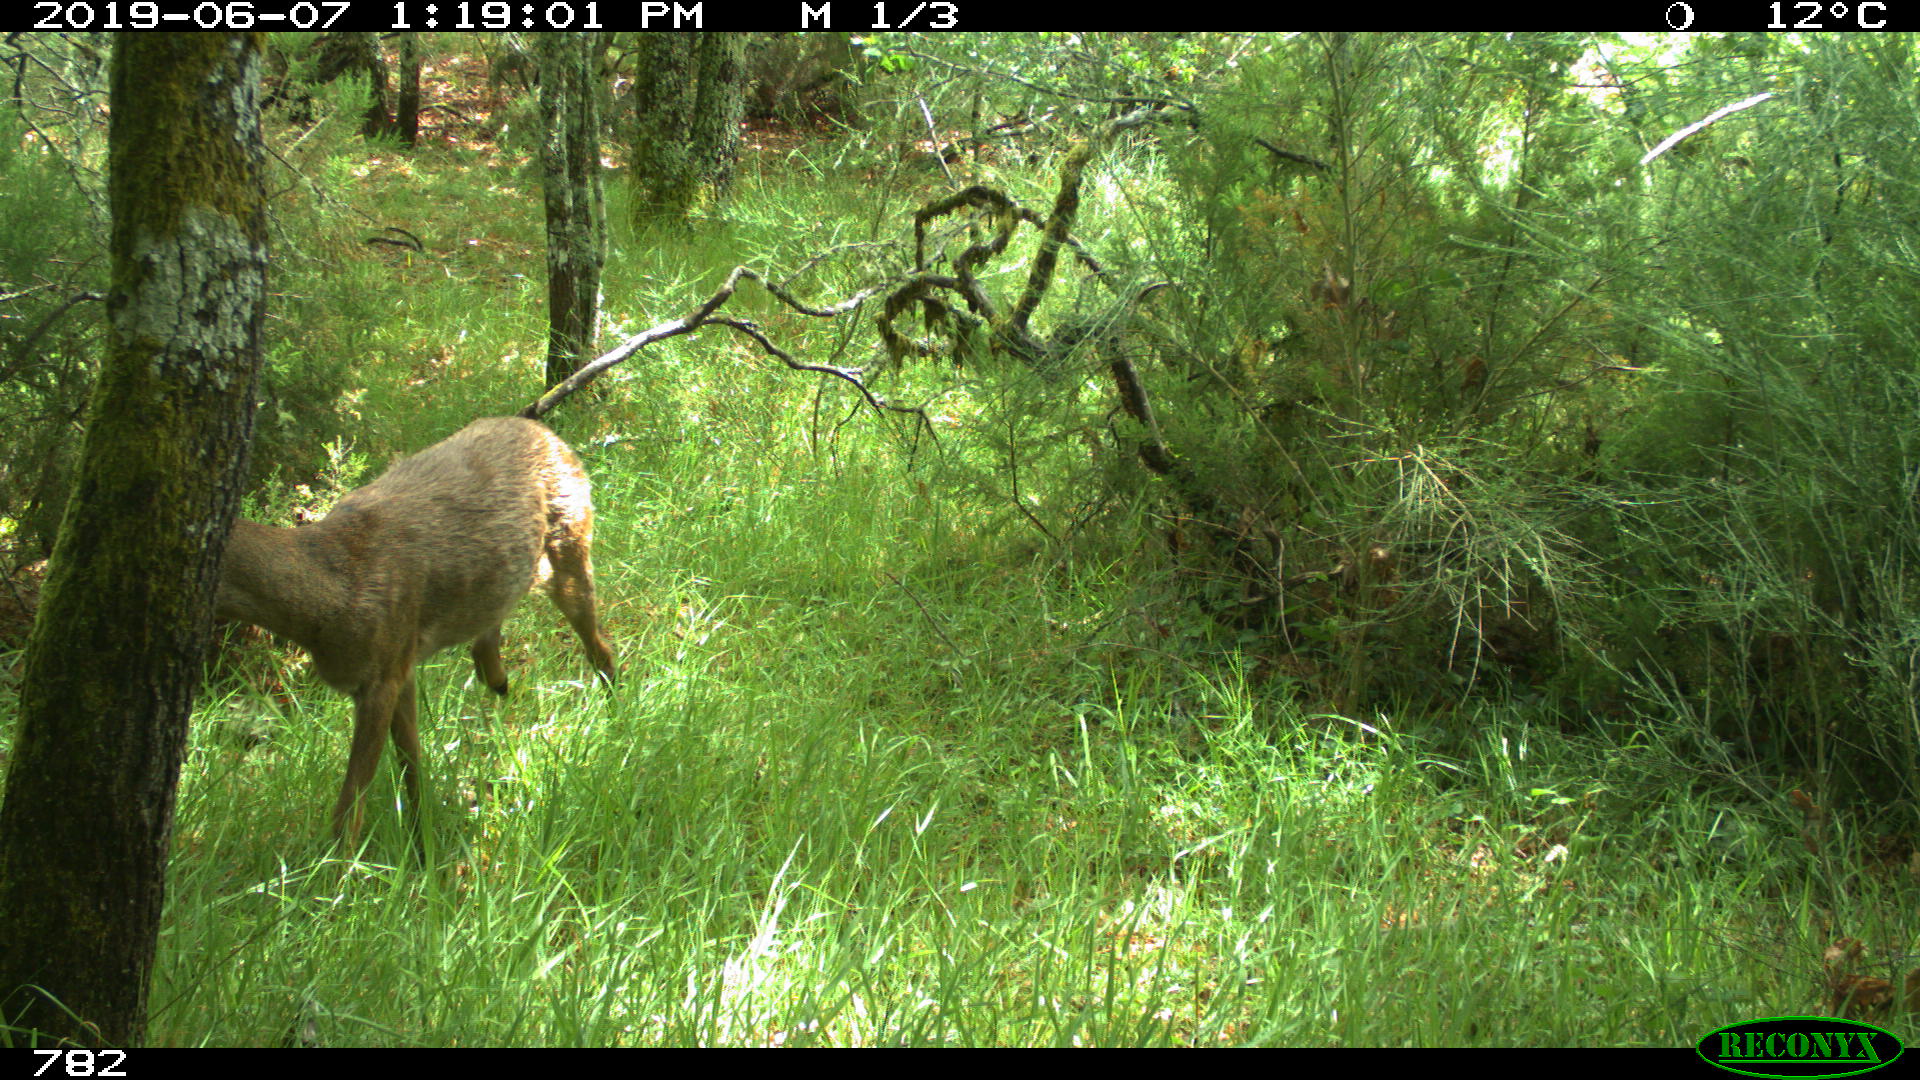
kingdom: Animalia
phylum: Chordata
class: Mammalia
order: Artiodactyla
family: Cervidae
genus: Capreolus
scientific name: Capreolus capreolus
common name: Western roe deer
